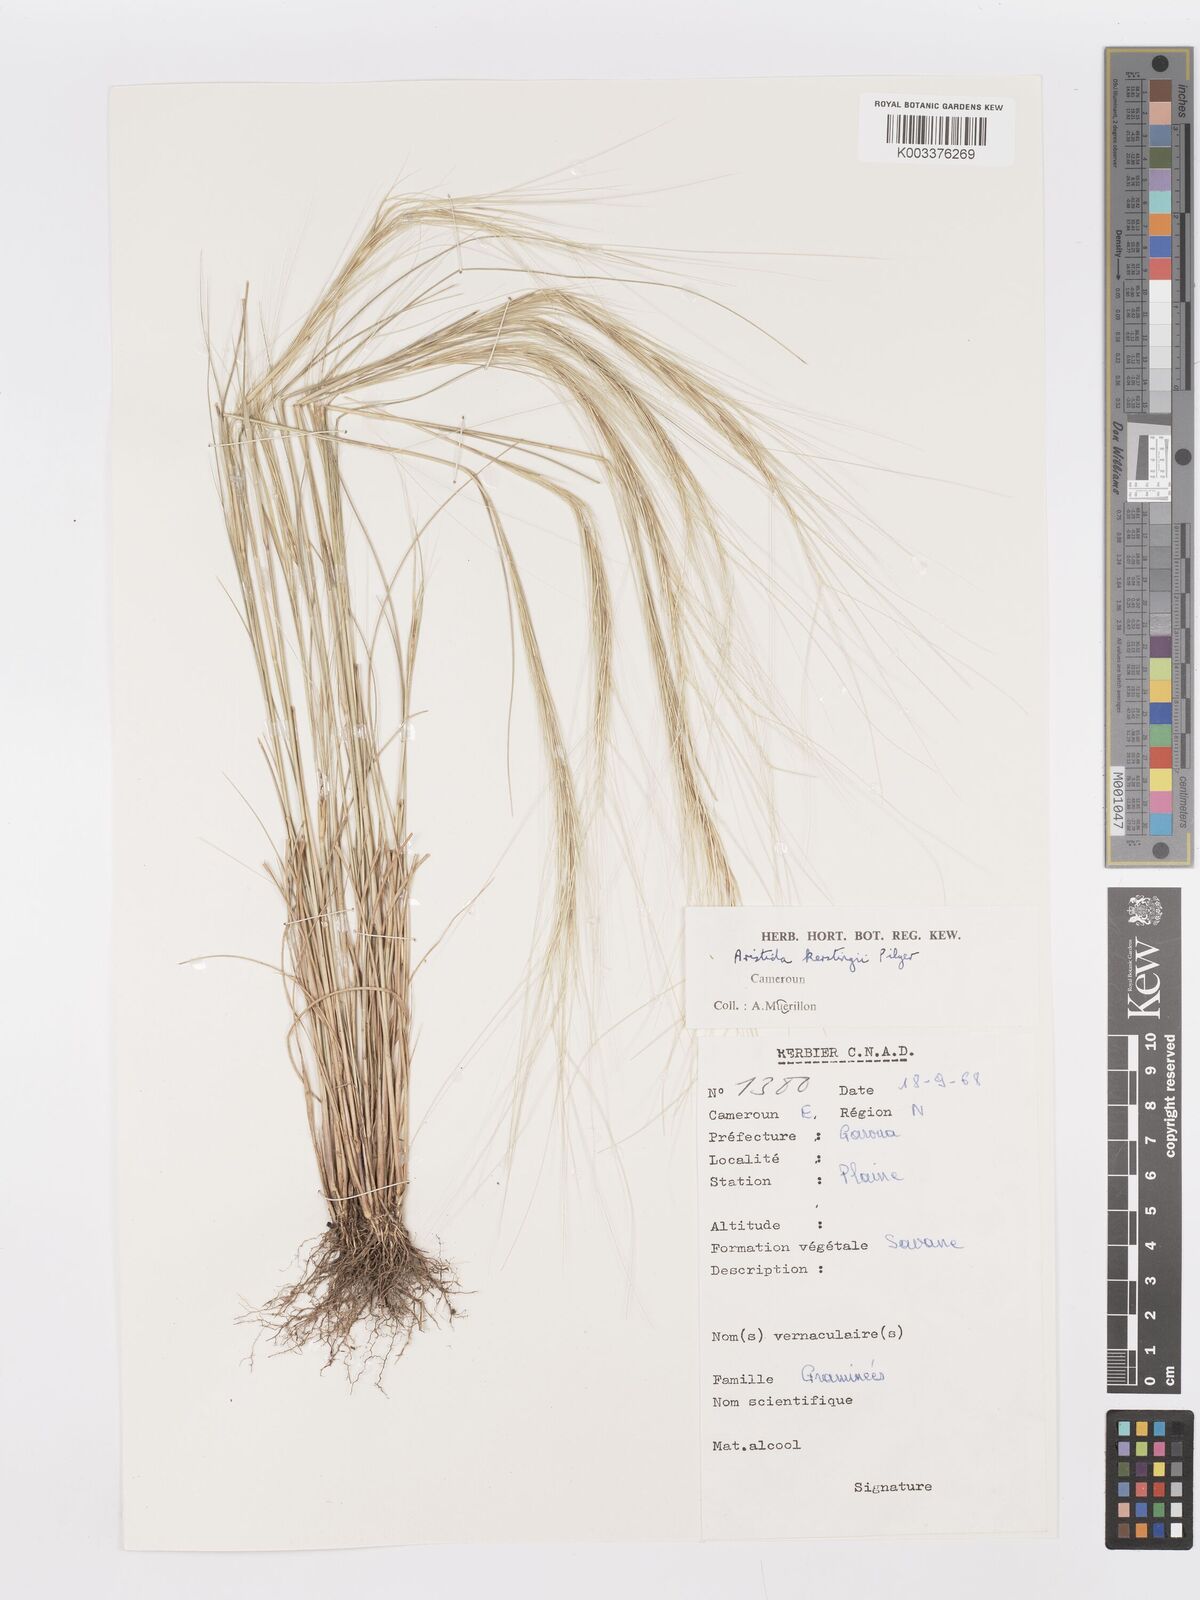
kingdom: Plantae
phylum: Tracheophyta
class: Liliopsida
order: Poales
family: Poaceae
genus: Aristida
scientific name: Aristida kerstingii
